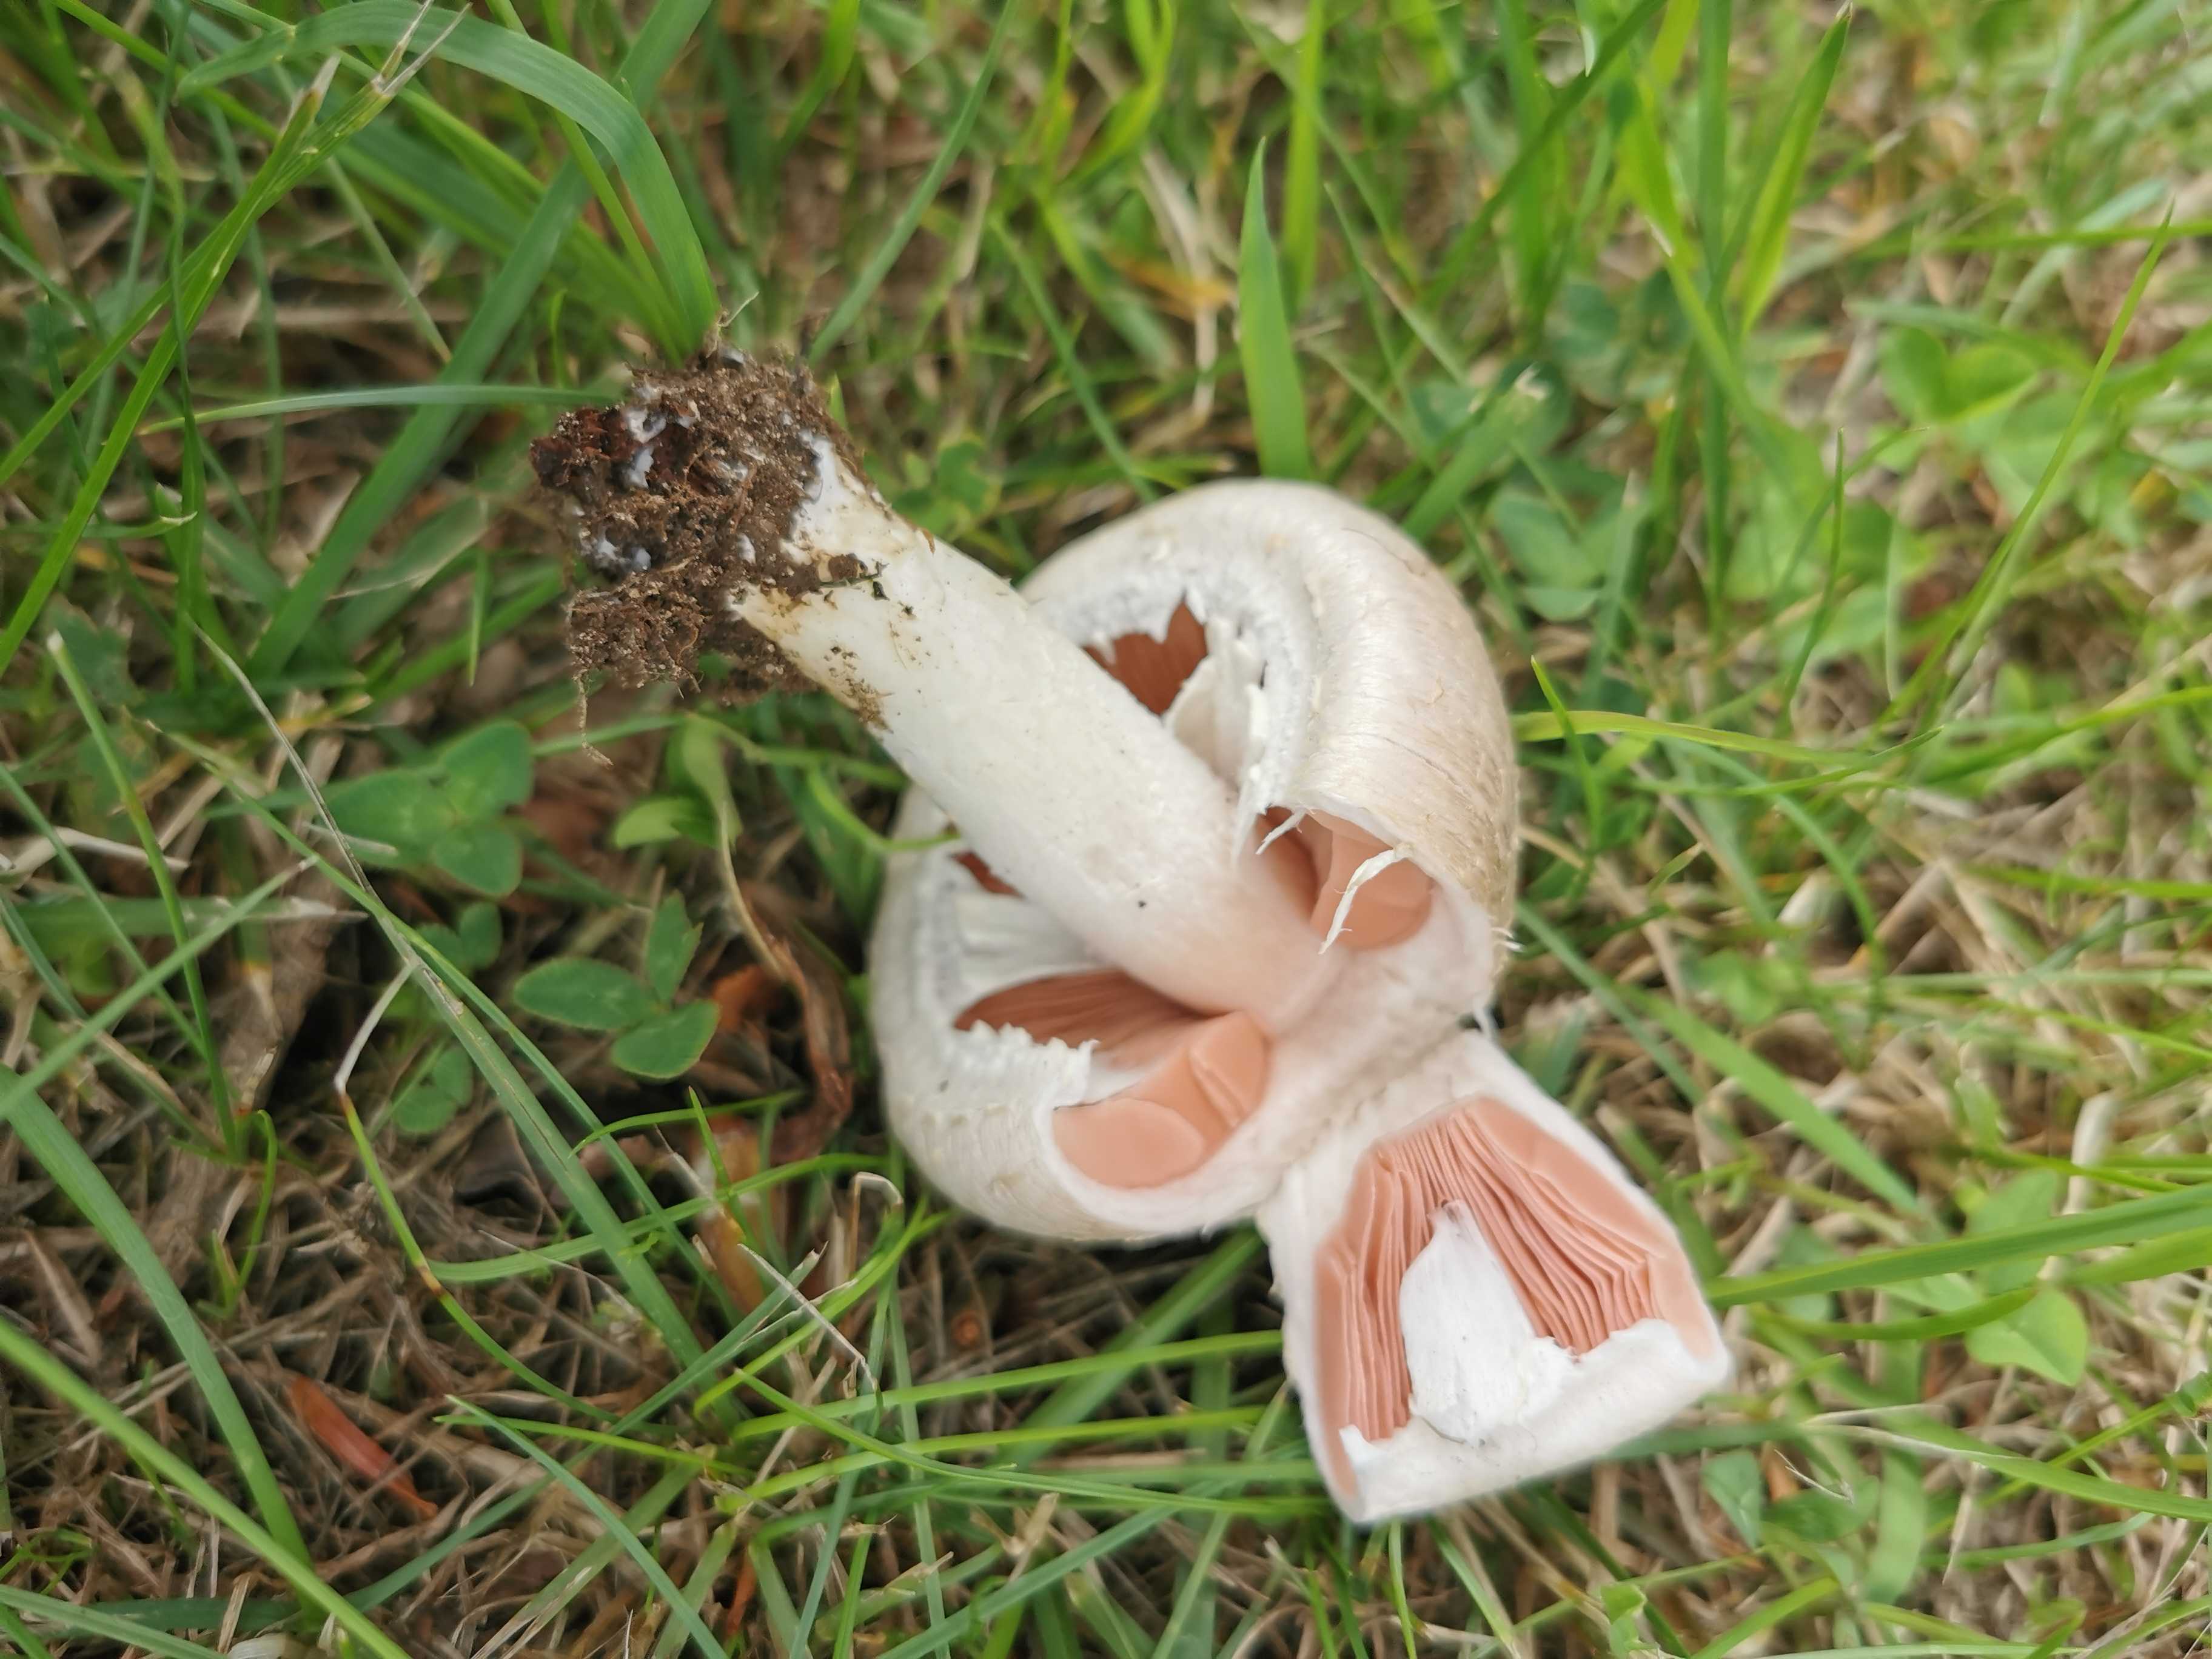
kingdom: Fungi
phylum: Basidiomycota
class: Agaricomycetes
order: Agaricales
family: Agaricaceae
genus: Agaricus
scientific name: Agaricus campestris
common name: mark-champignon
